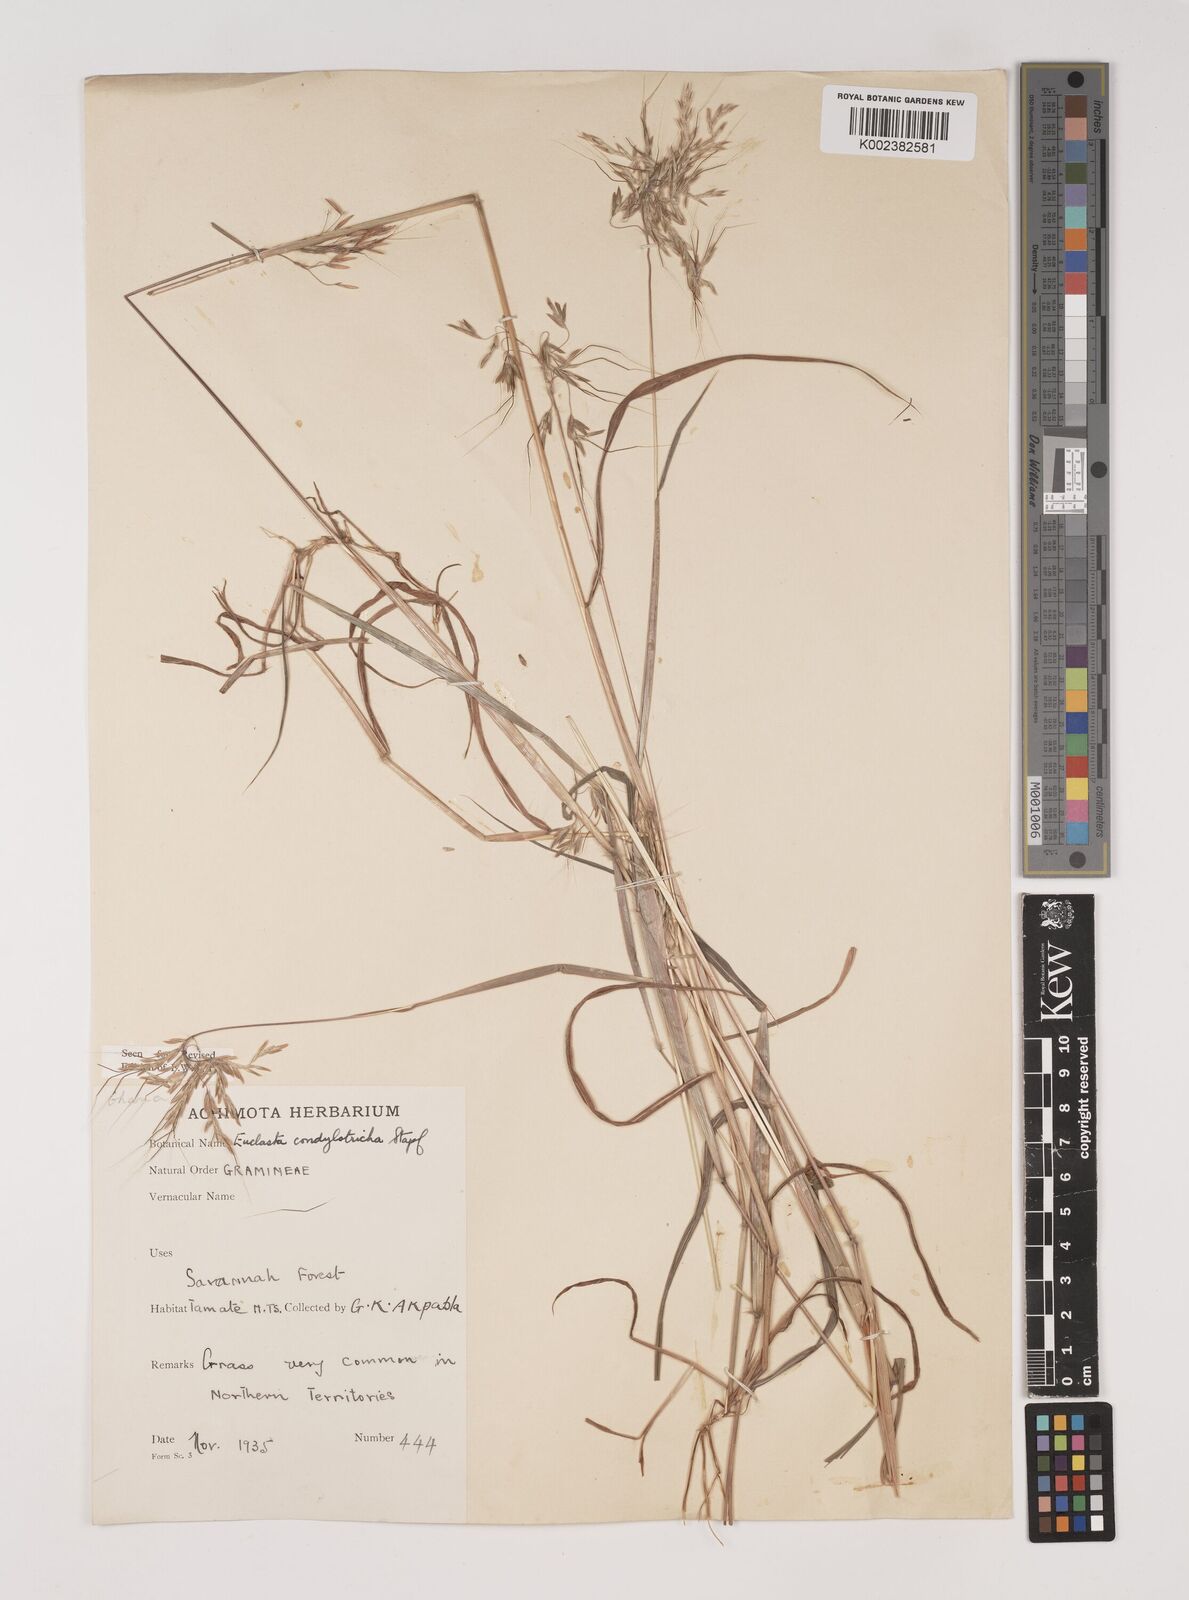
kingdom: Plantae
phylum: Tracheophyta
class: Liliopsida
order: Poales
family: Poaceae
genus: Euclasta
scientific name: Euclasta condylotricha
